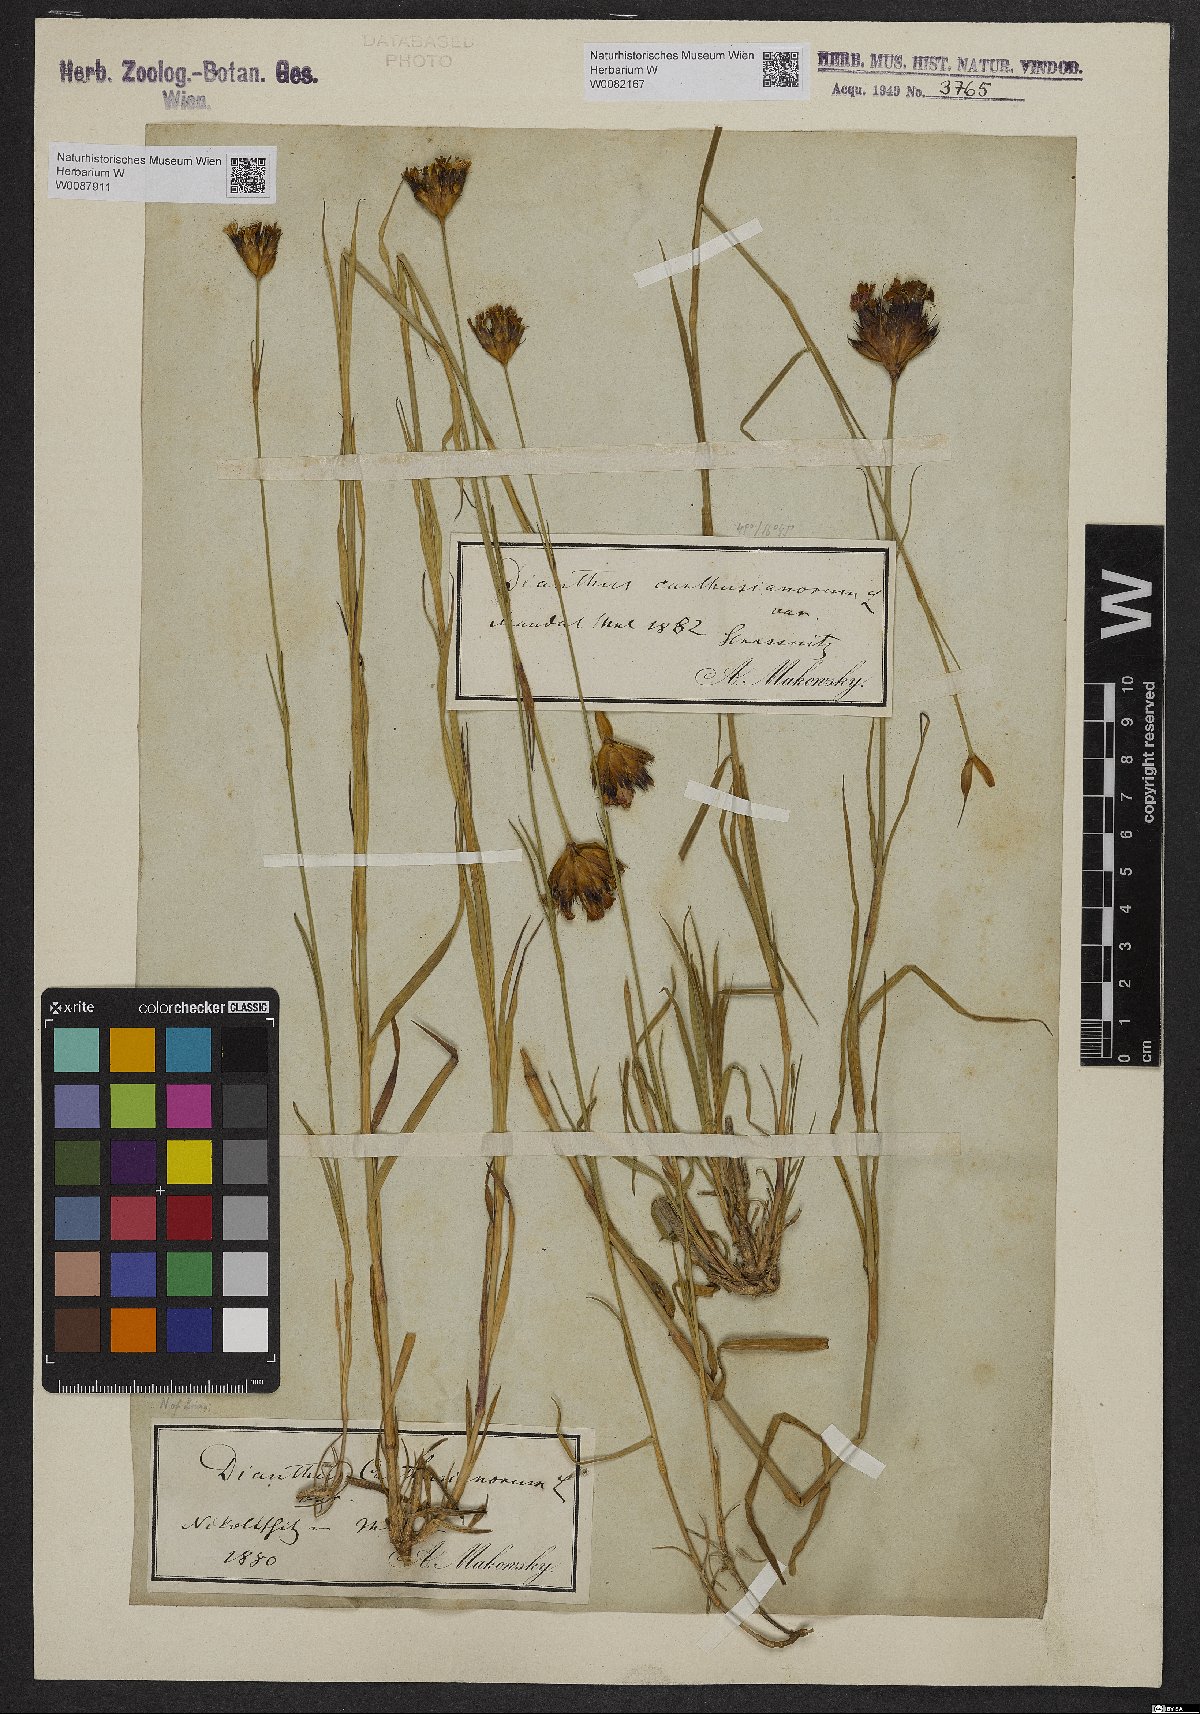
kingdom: Plantae
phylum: Tracheophyta
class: Magnoliopsida
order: Caryophyllales
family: Caryophyllaceae
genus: Dianthus
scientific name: Dianthus carthusianorum
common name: Carthusian pink
